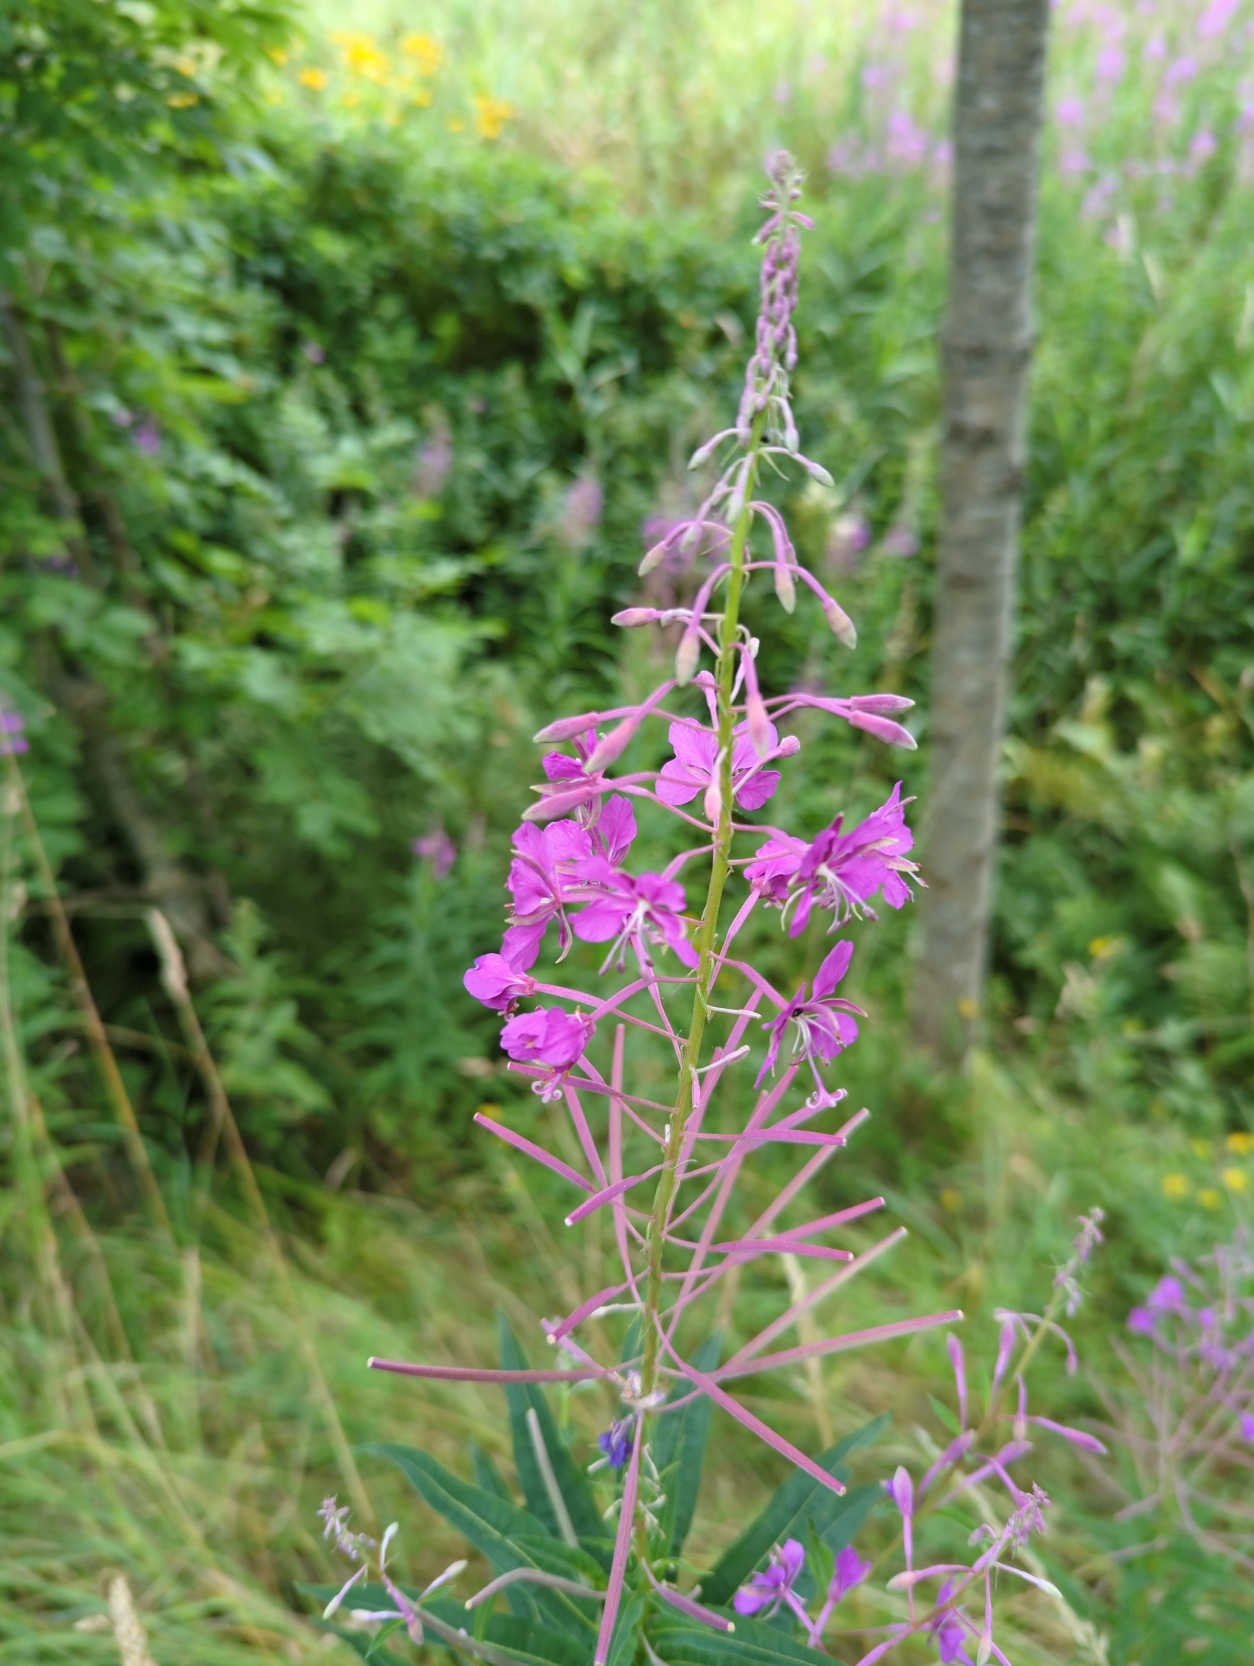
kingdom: Plantae
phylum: Tracheophyta
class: Magnoliopsida
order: Myrtales
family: Onagraceae
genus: Chamaenerion
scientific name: Chamaenerion angustifolium
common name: Gederams
